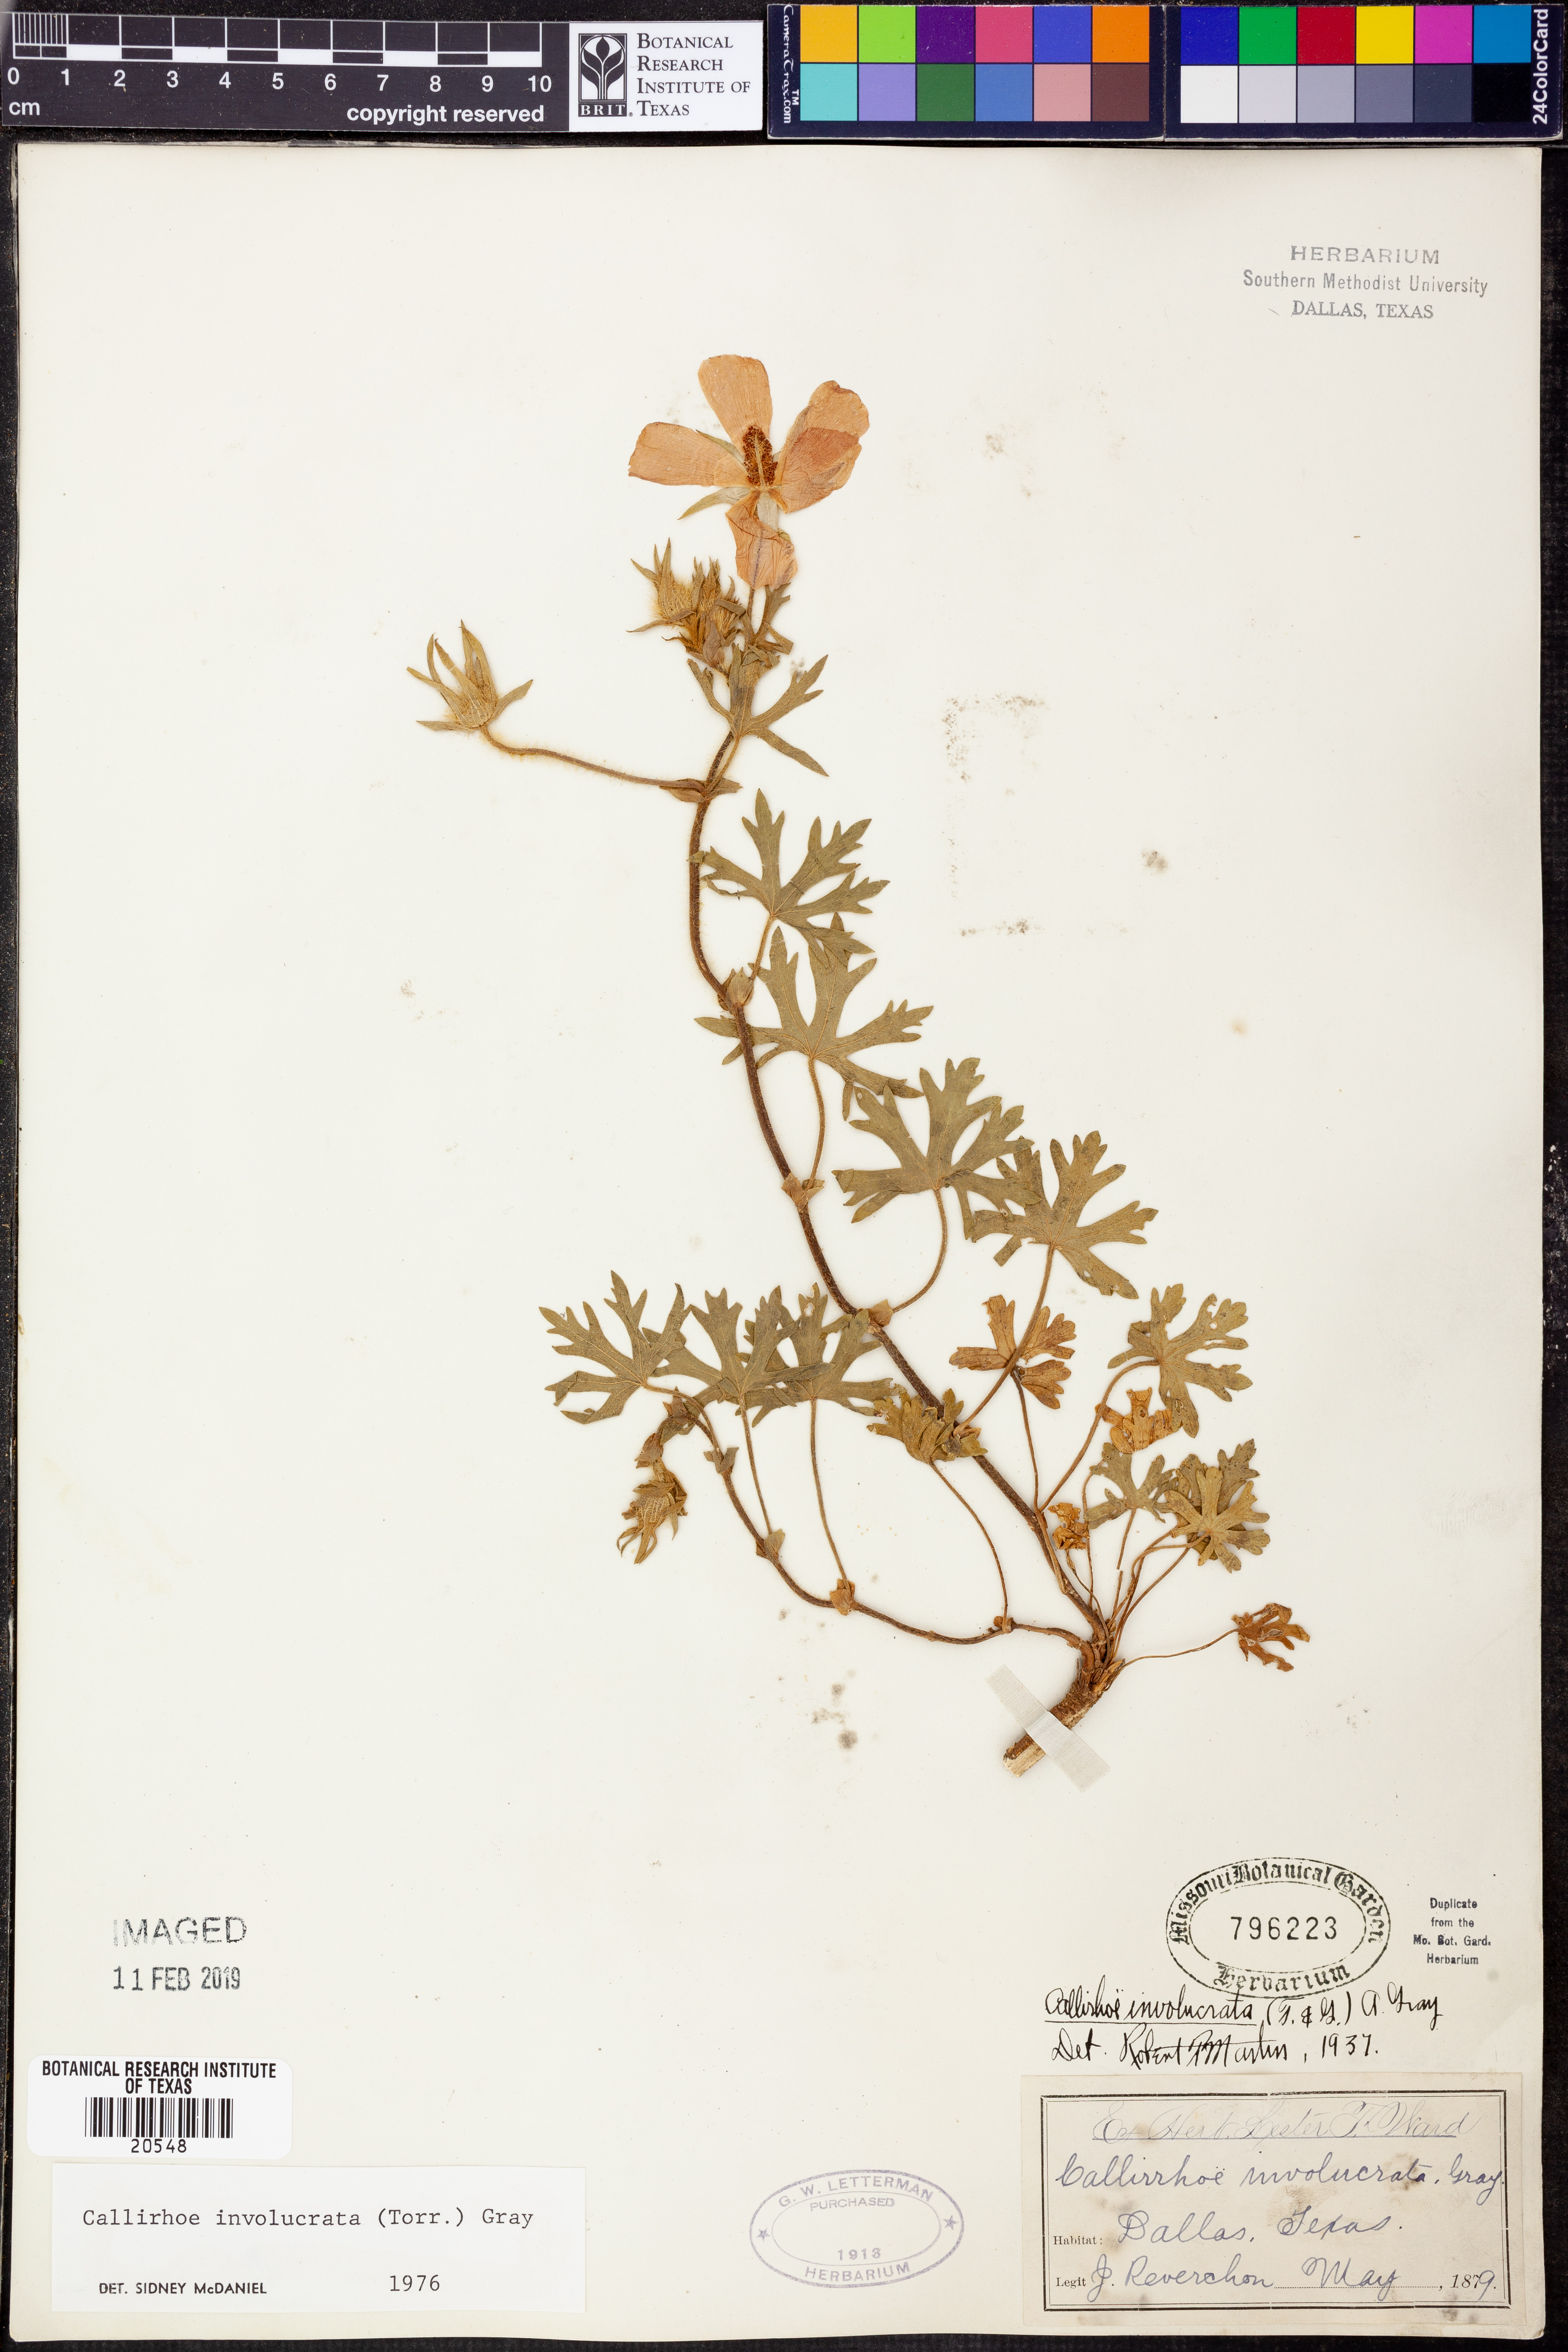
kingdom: Plantae
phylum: Tracheophyta
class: Magnoliopsida
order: Malvales
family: Malvaceae
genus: Callirhoe
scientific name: Callirhoe involucrata
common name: Purple poppy-mallow
